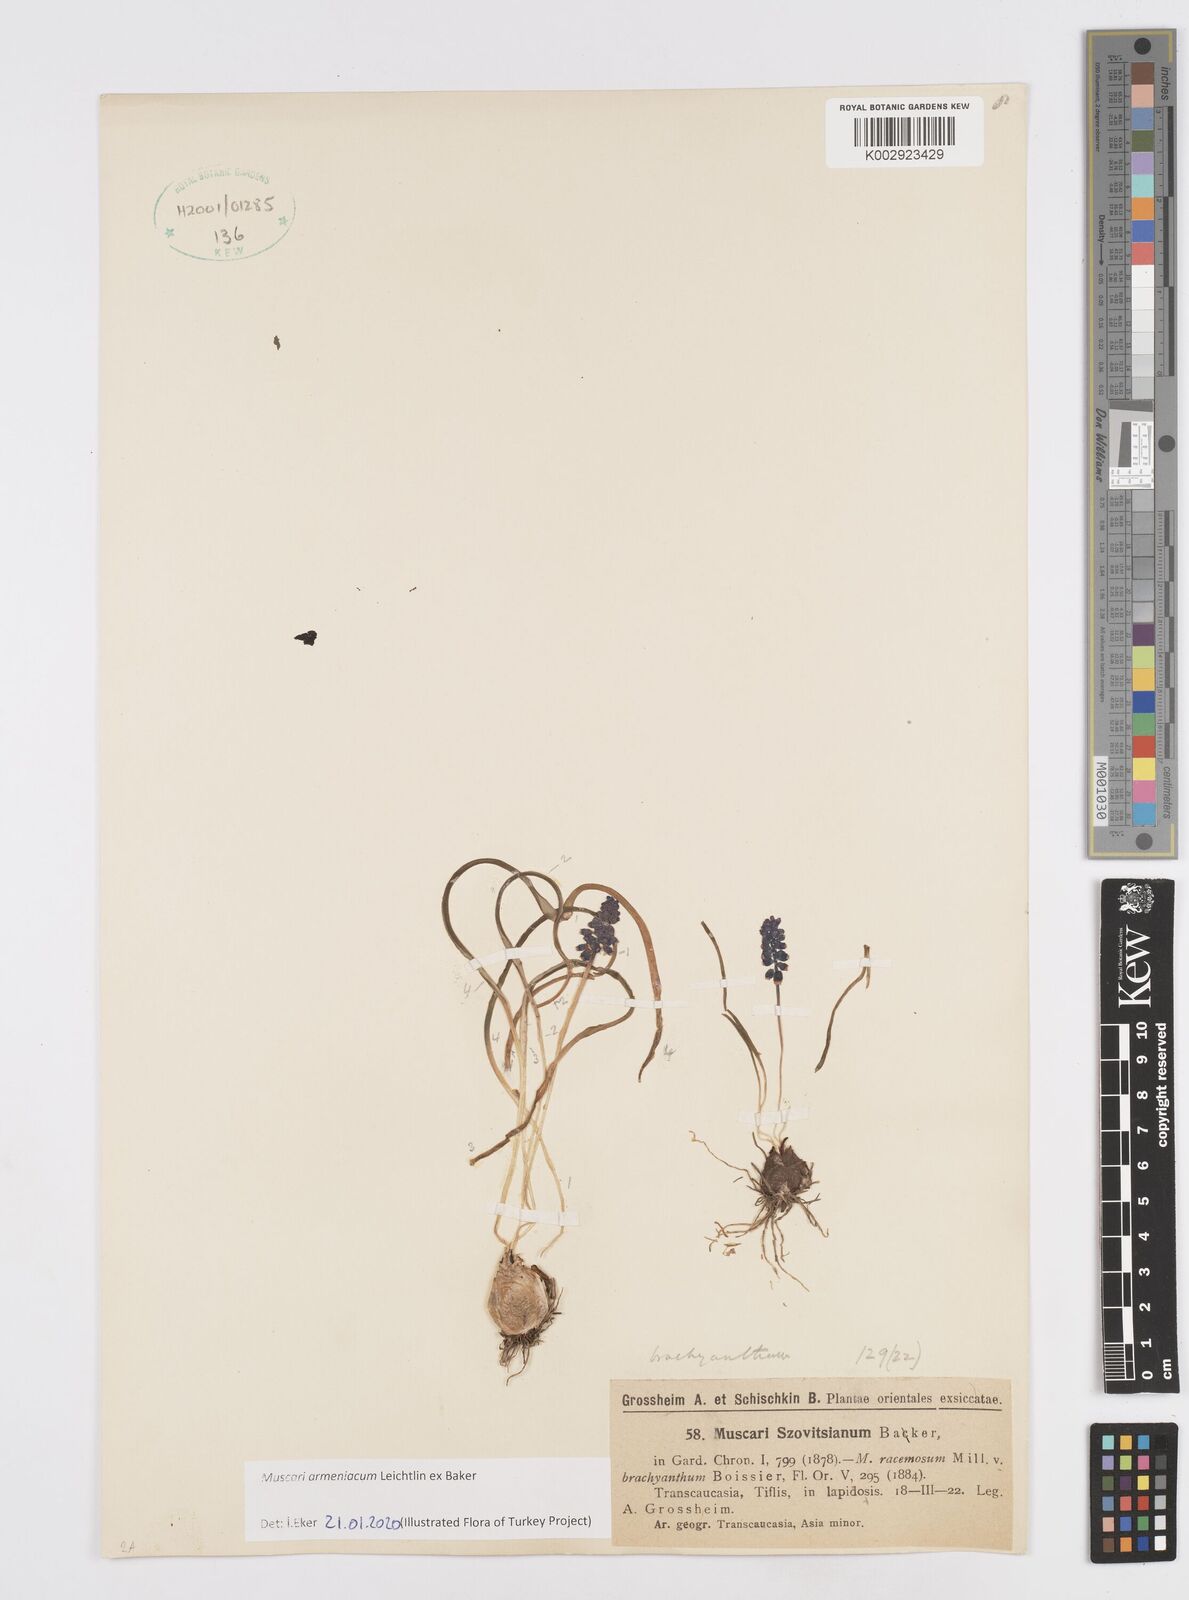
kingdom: Plantae
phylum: Tracheophyta
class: Liliopsida
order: Asparagales
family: Asparagaceae
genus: Muscari
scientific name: Muscari neglectum
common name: Grape-hyacinth
